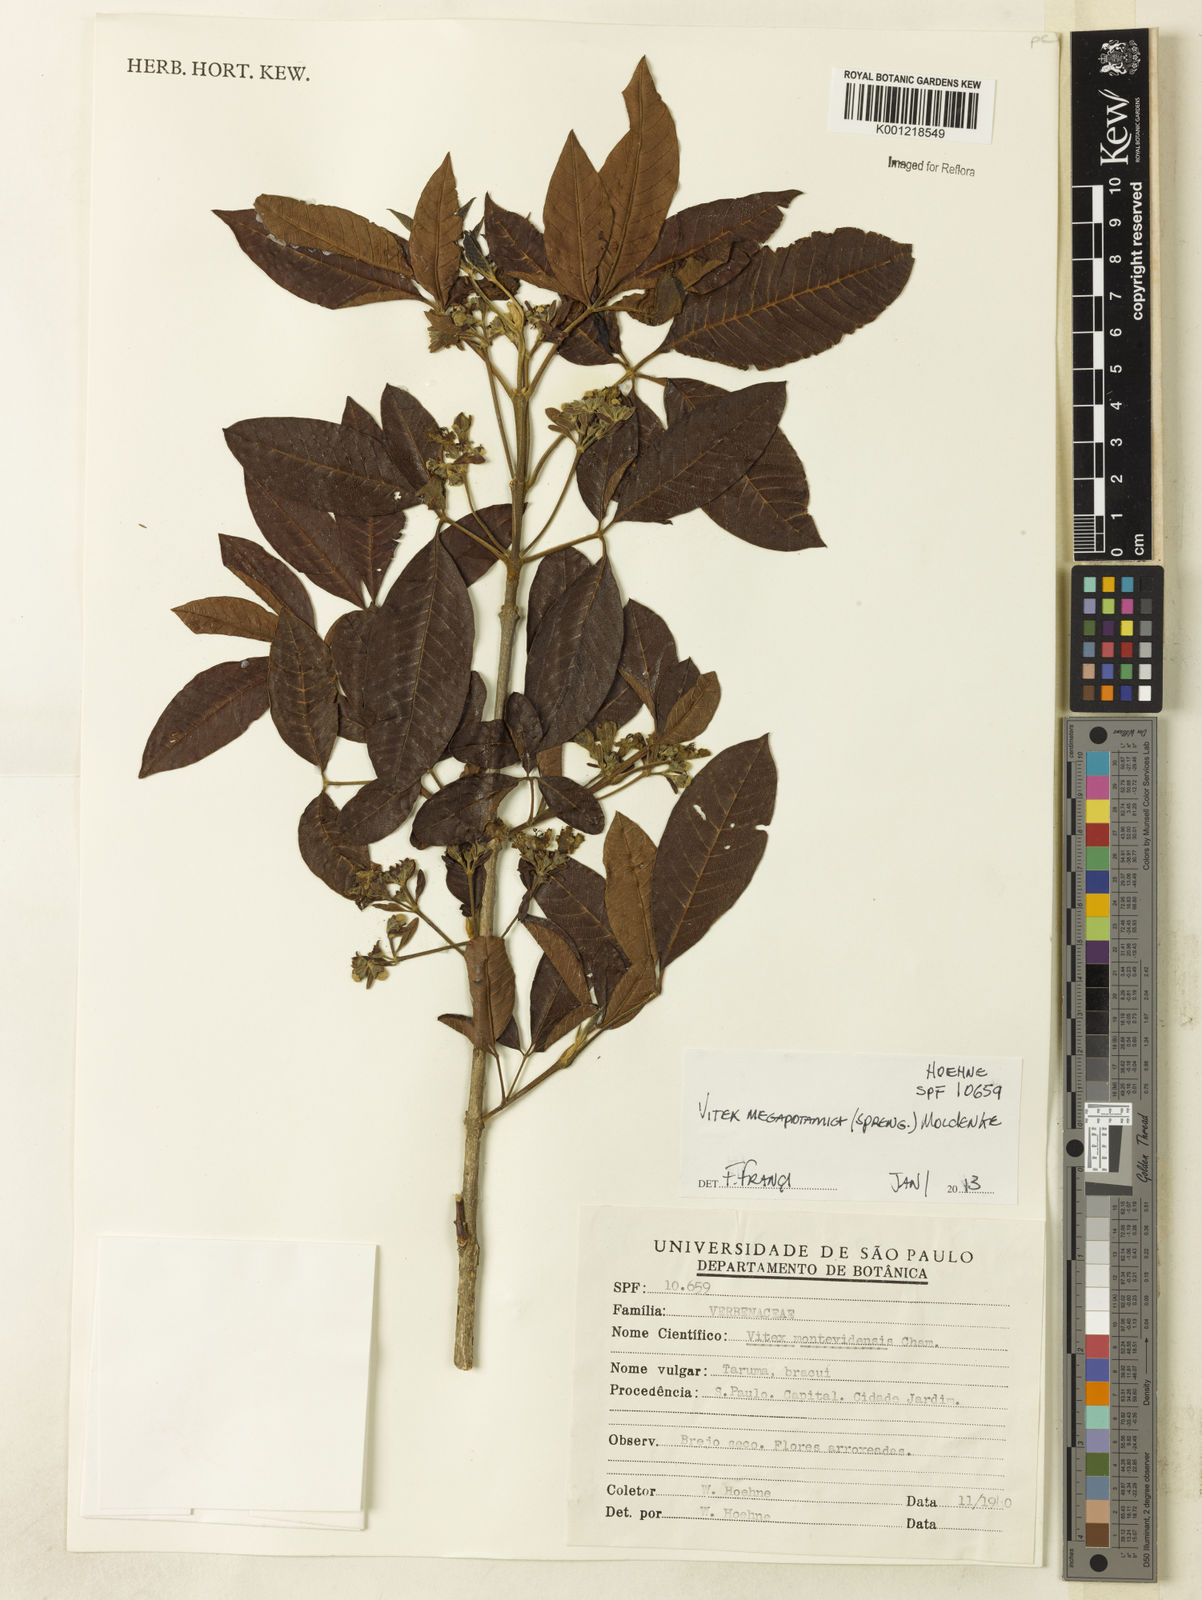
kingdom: Plantae
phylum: Tracheophyta
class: Magnoliopsida
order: Lamiales
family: Lamiaceae
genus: Vitex
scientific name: Vitex megapotamica
